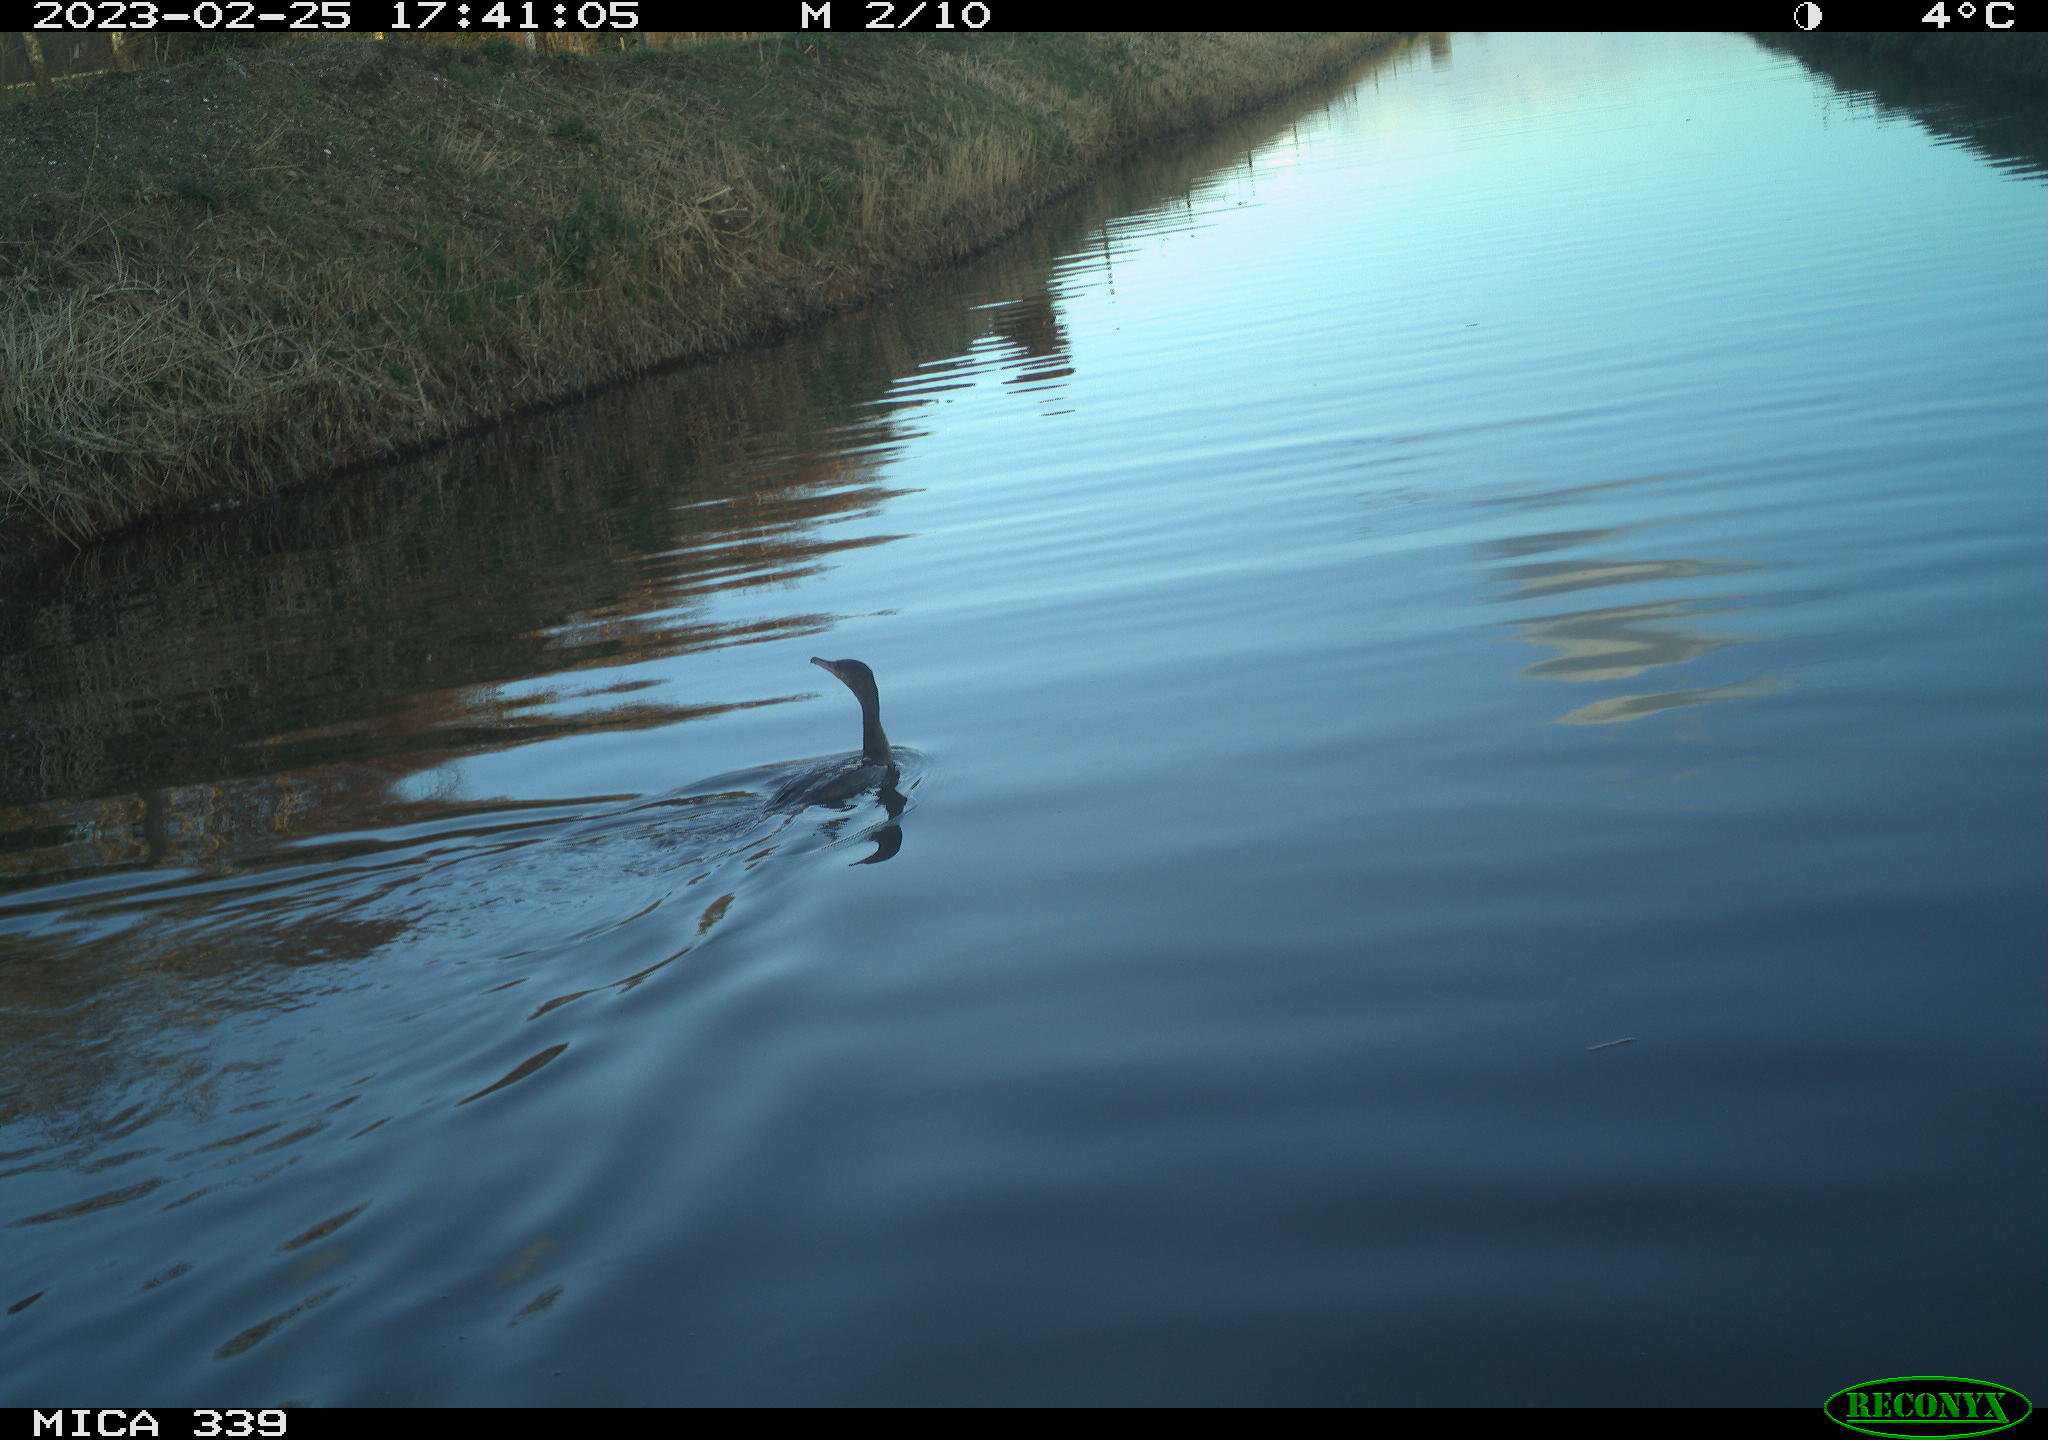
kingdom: Animalia
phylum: Chordata
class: Aves
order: Suliformes
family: Phalacrocoracidae
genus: Phalacrocorax
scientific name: Phalacrocorax carbo
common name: Great cormorant
